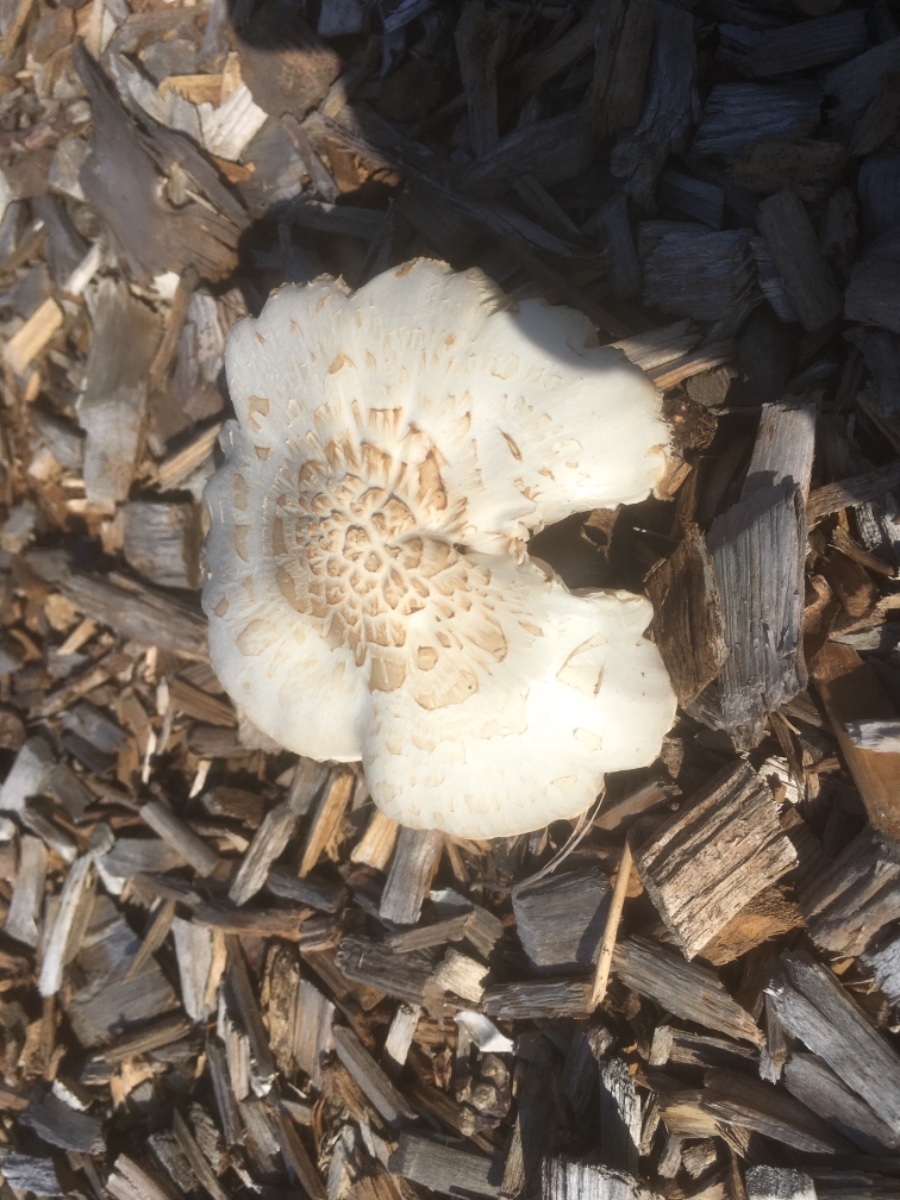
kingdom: Fungi
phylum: Basidiomycota
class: Agaricomycetes
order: Agaricales
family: Pluteaceae
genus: Pluteus
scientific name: Pluteus petasatus
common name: savsmulds-skærmhat
